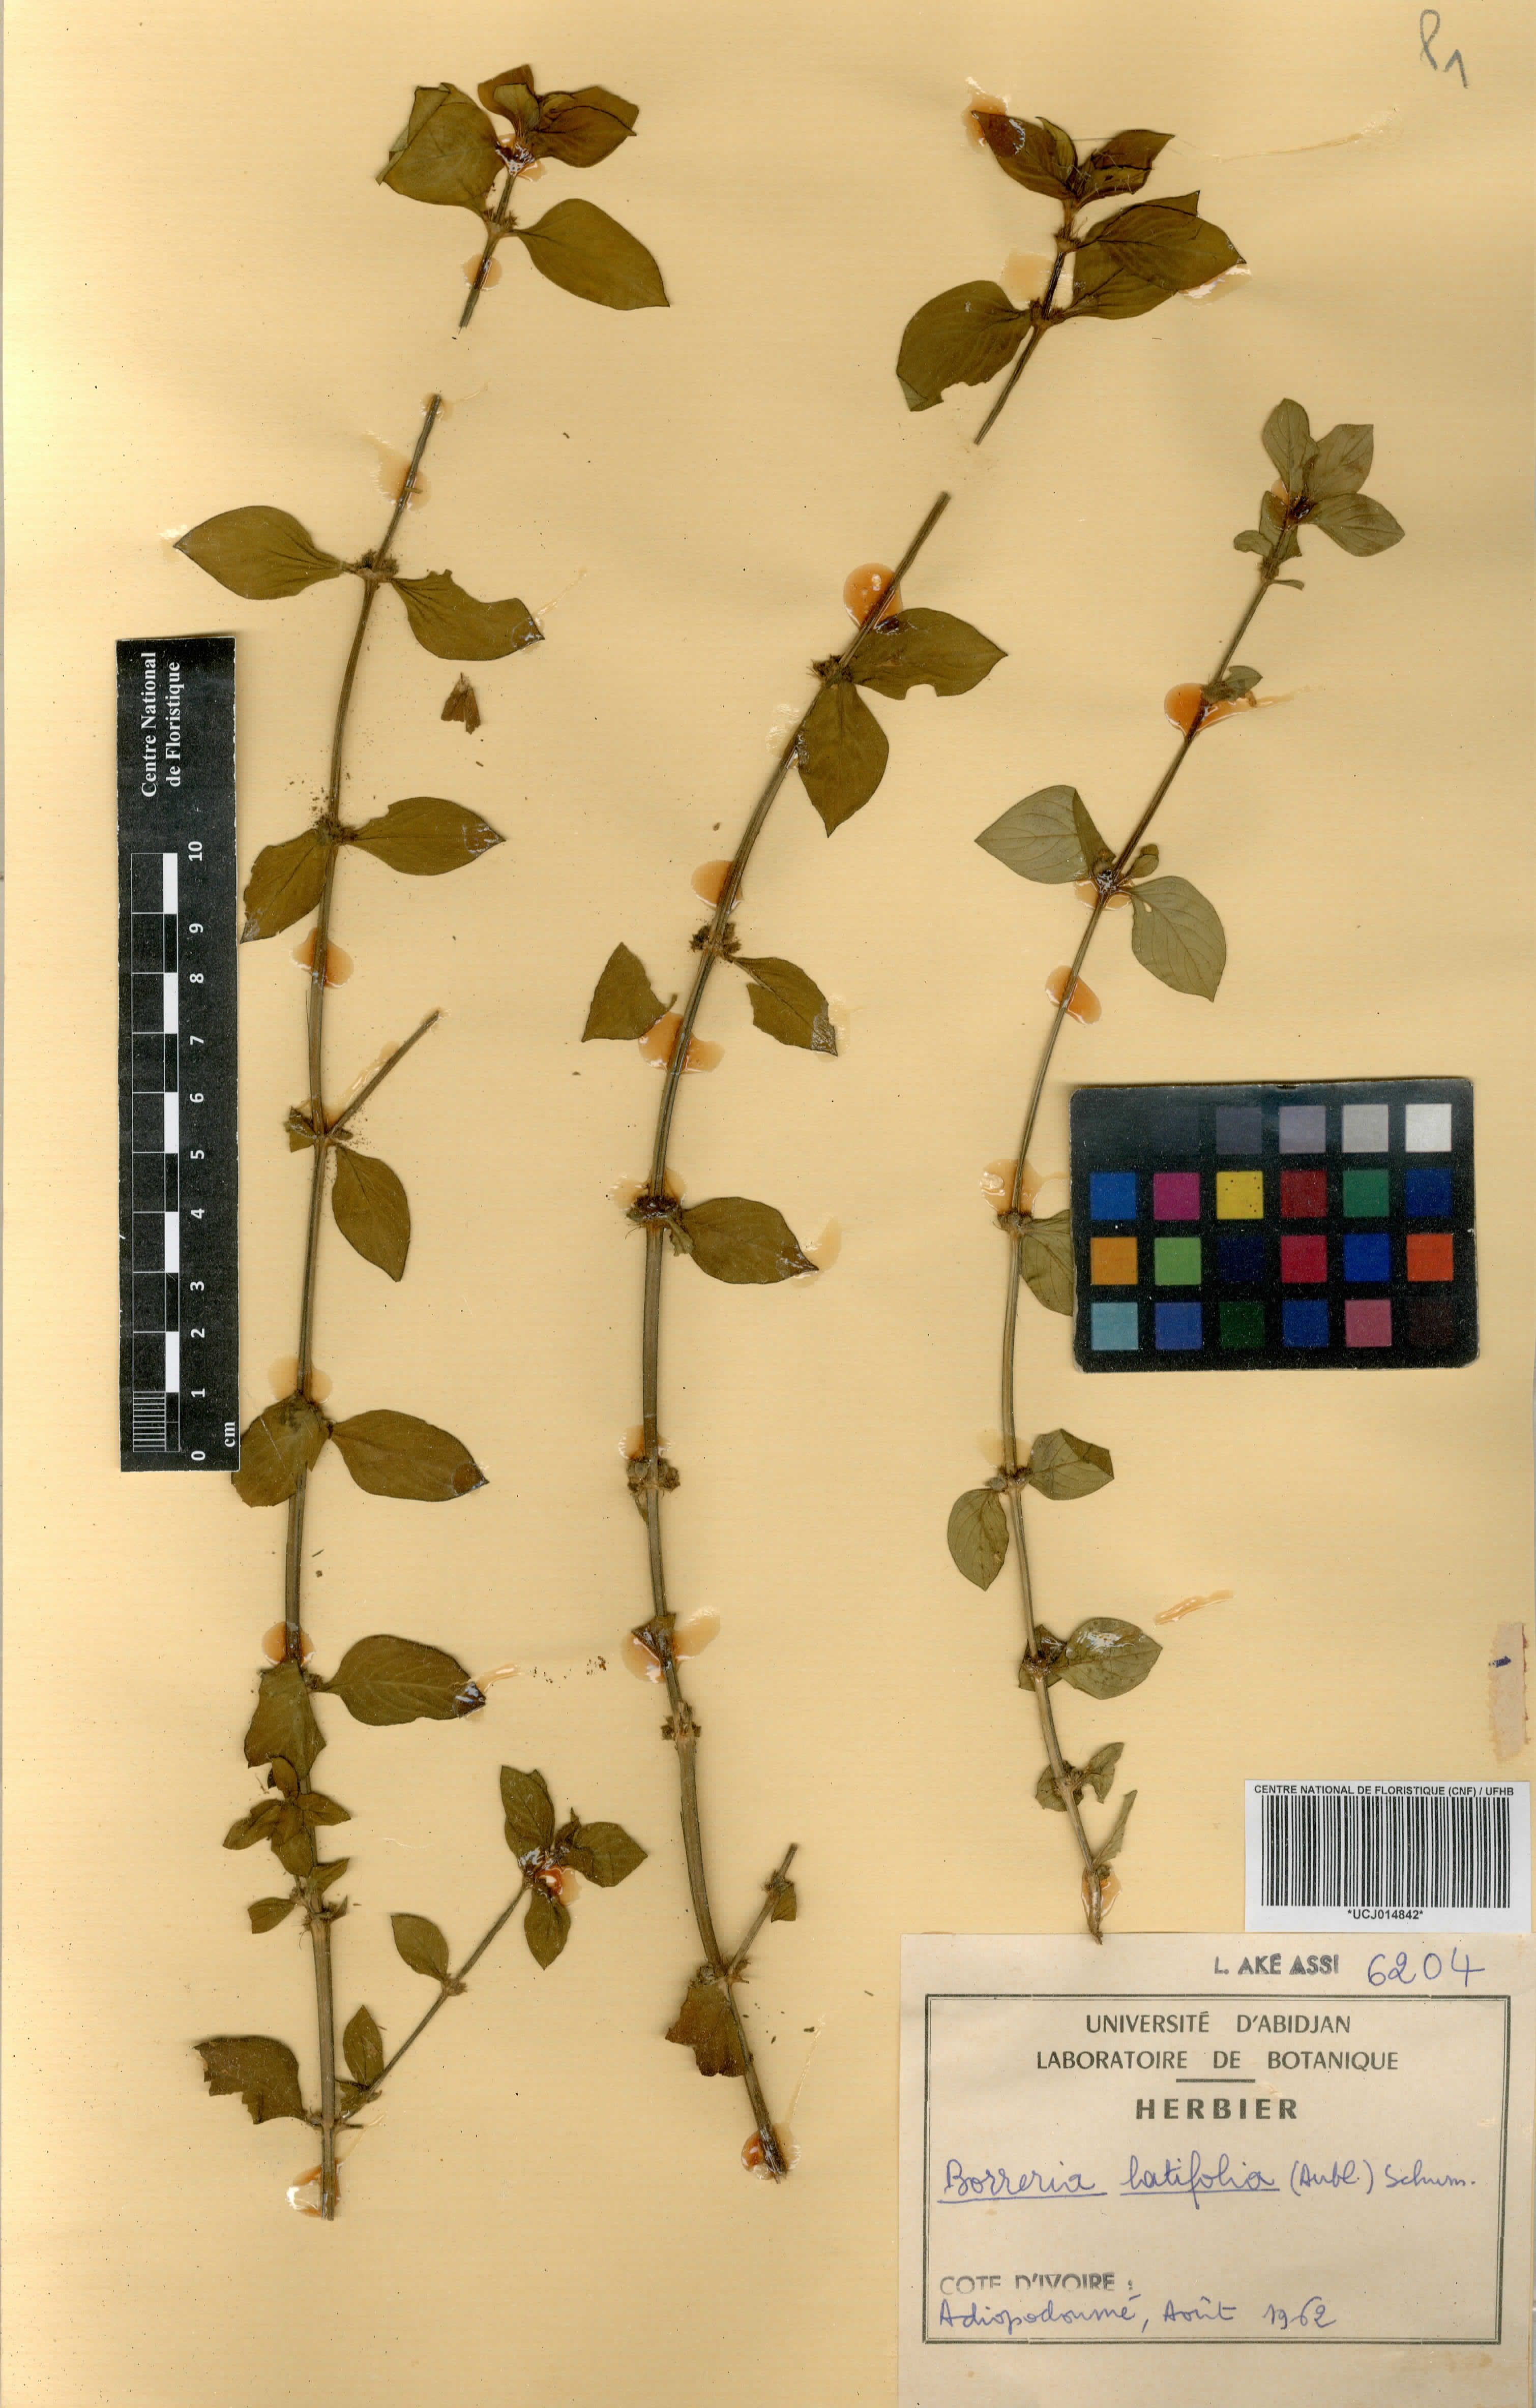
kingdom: Plantae
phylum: Tracheophyta
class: Magnoliopsida
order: Gentianales
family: Rubiaceae
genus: Spermacoce
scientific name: Spermacoce latifolia
